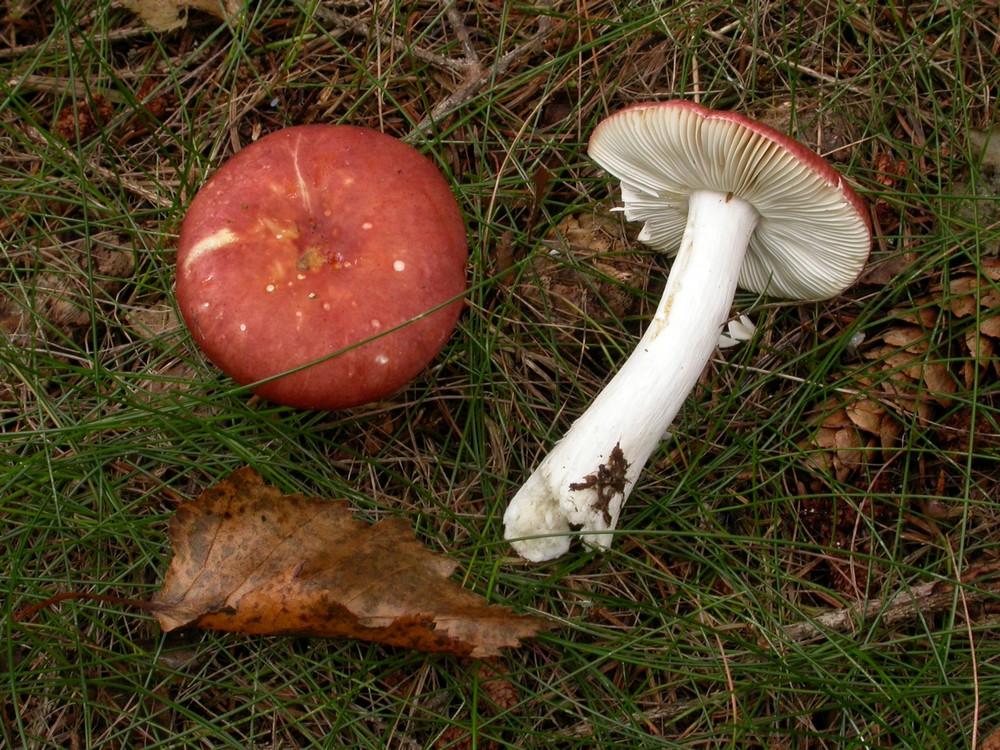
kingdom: Fungi
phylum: Basidiomycota
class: Agaricomycetes
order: Russulales
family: Russulaceae
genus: Russula
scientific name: Russula velenovskyi
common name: orangerød skørhat
